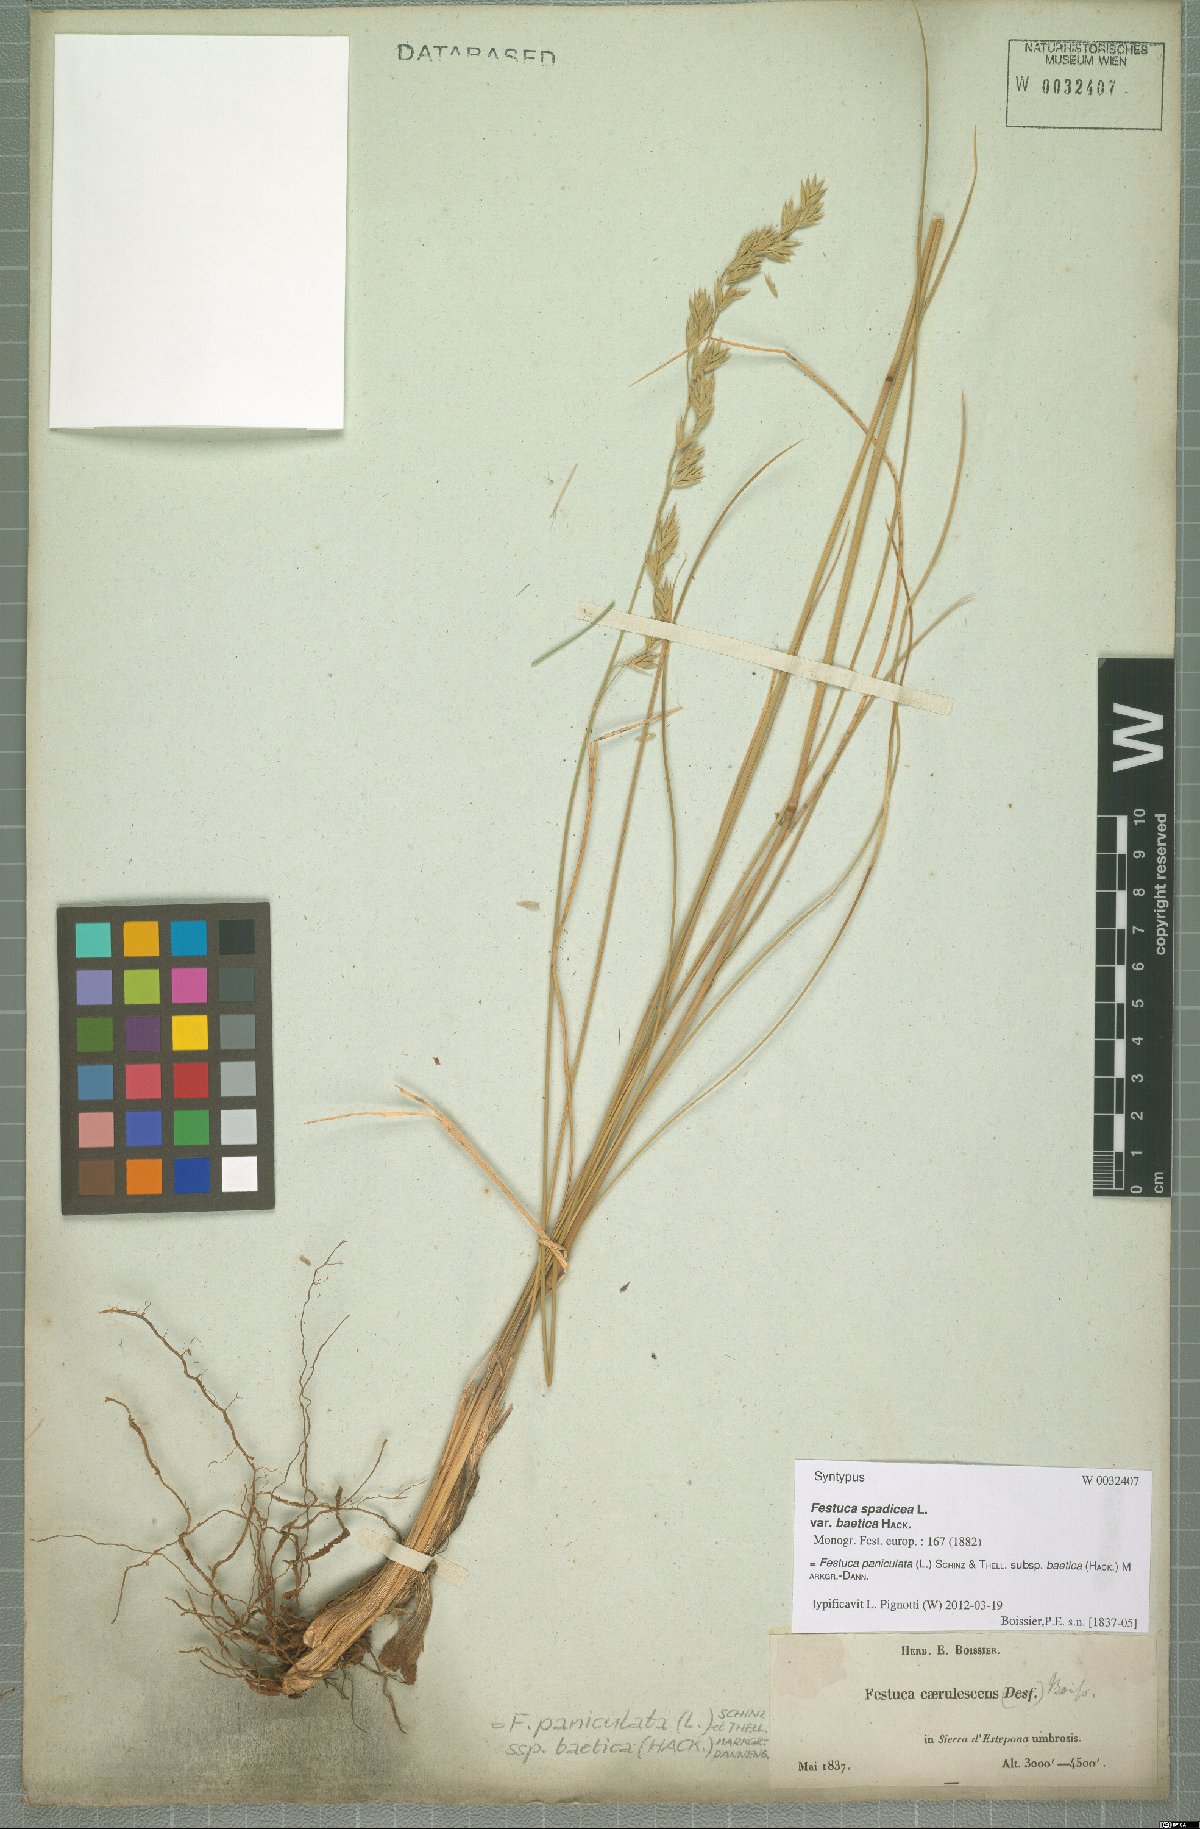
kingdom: Plantae
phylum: Tracheophyta
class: Liliopsida
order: Poales
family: Poaceae
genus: Patzkea
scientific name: Patzkea paniculata
